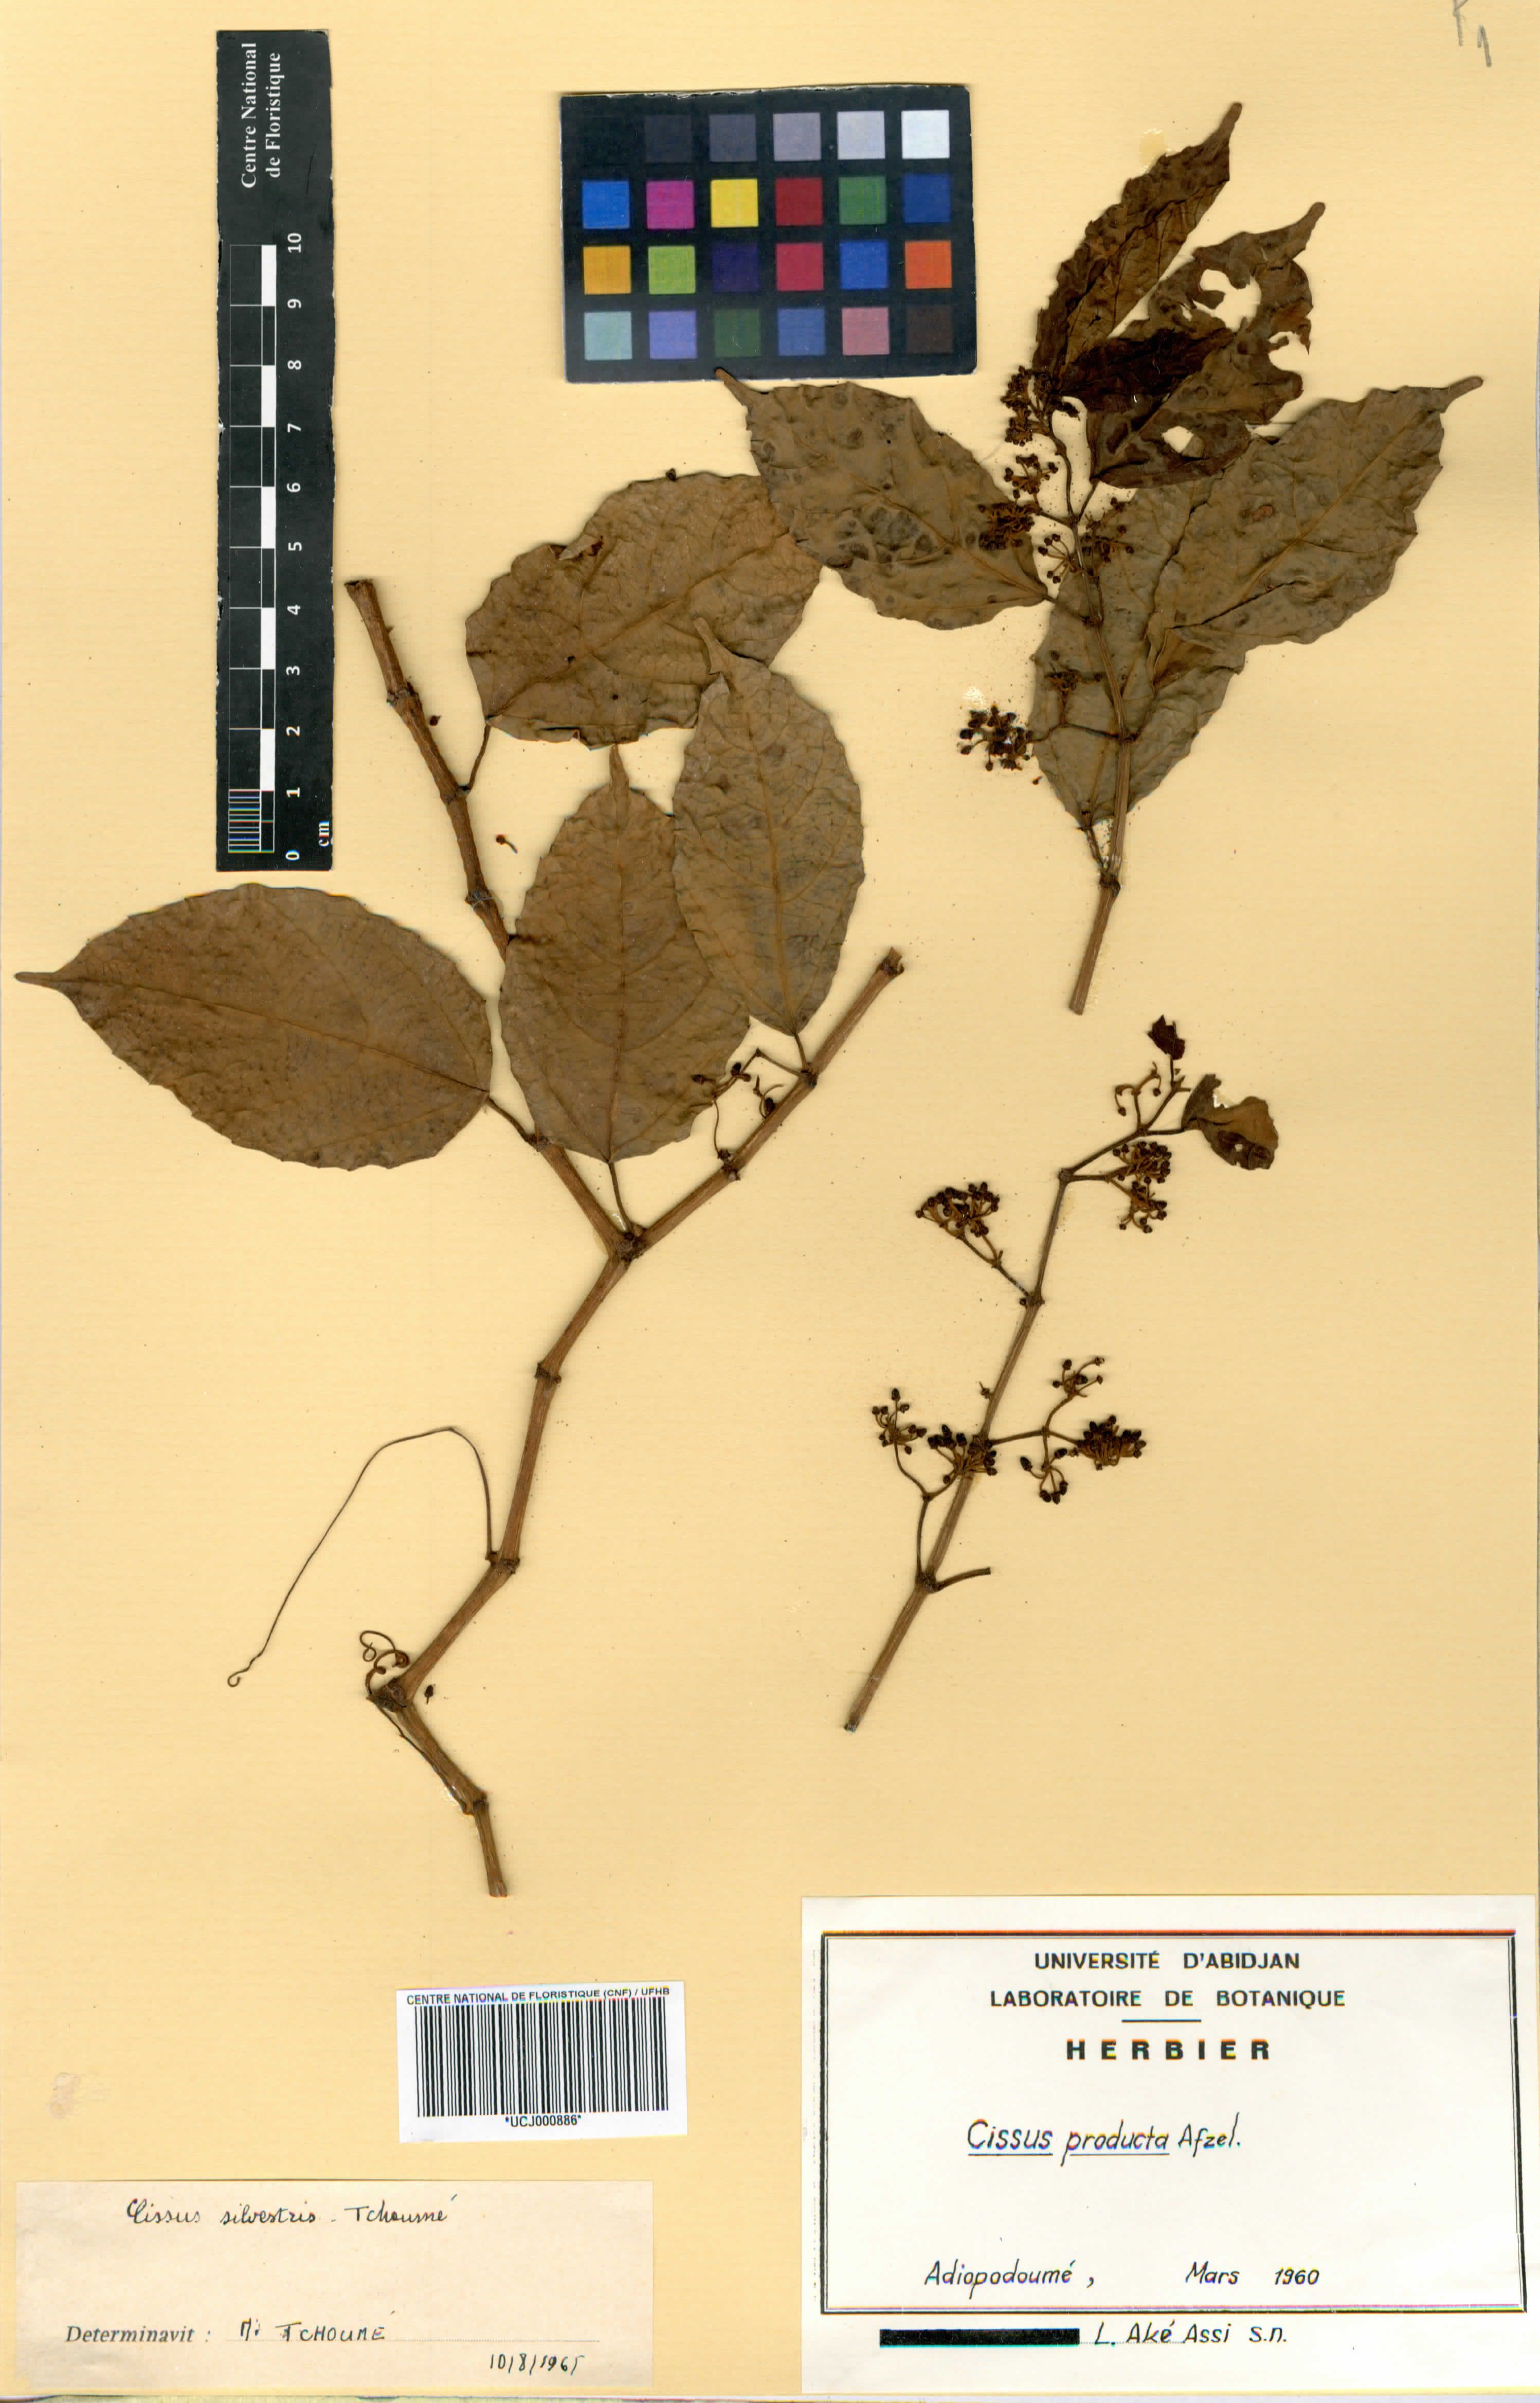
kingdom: Plantae
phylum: Tracheophyta
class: Magnoliopsida
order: Vitales
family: Vitaceae
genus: Cissus
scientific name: Cissus producta
